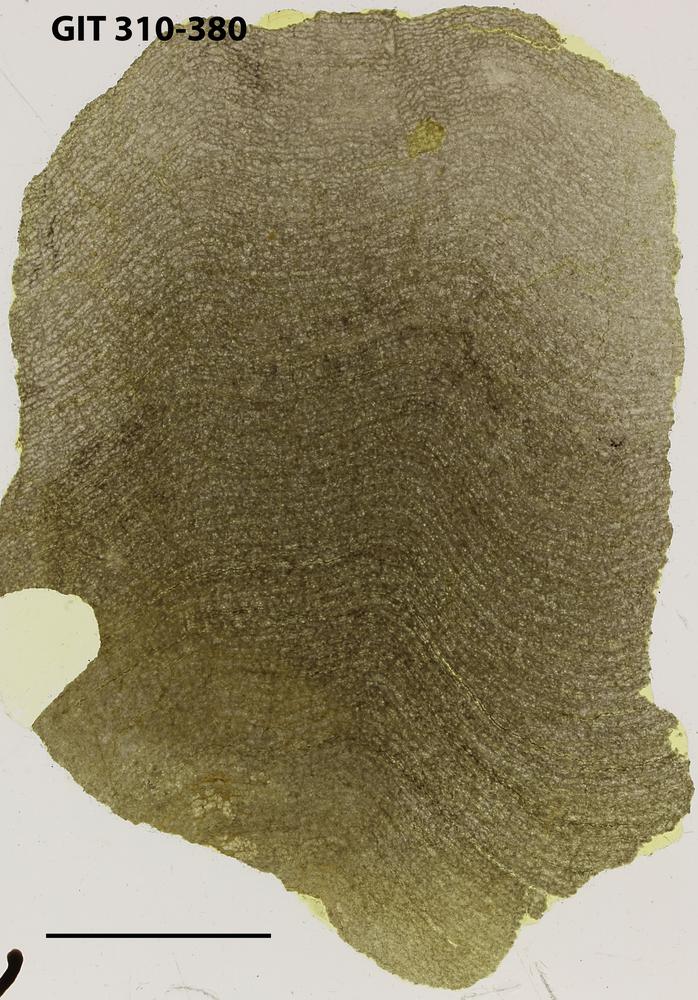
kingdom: Animalia
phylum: Porifera
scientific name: Porifera
